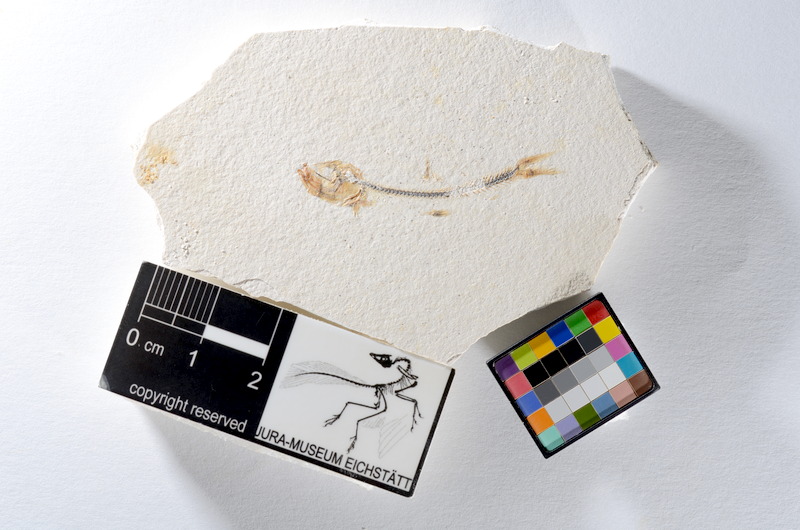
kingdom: Animalia
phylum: Chordata
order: Salmoniformes
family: Orthogonikleithridae
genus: Orthogonikleithrus
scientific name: Orthogonikleithrus hoelli
